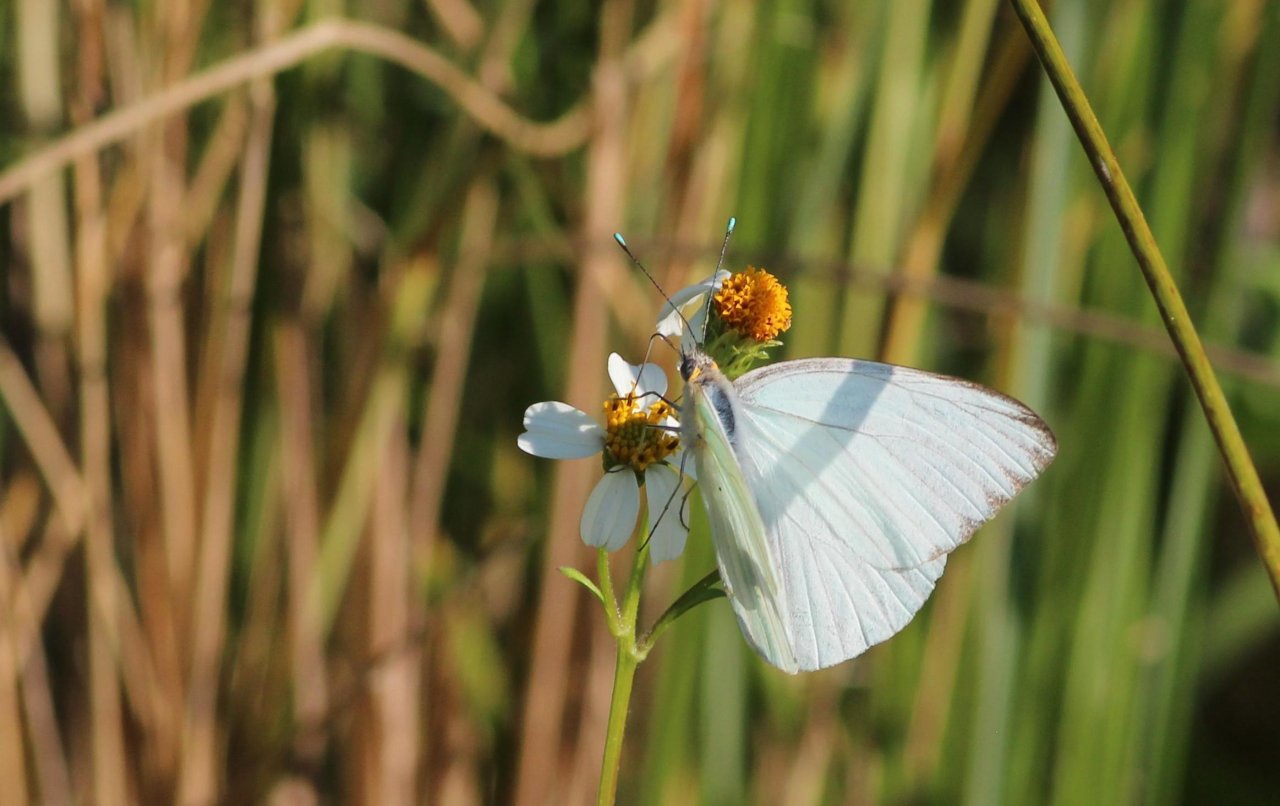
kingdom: Animalia
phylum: Arthropoda
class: Insecta
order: Lepidoptera
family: Pieridae
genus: Ascia
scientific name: Ascia monuste
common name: Great Southern White
